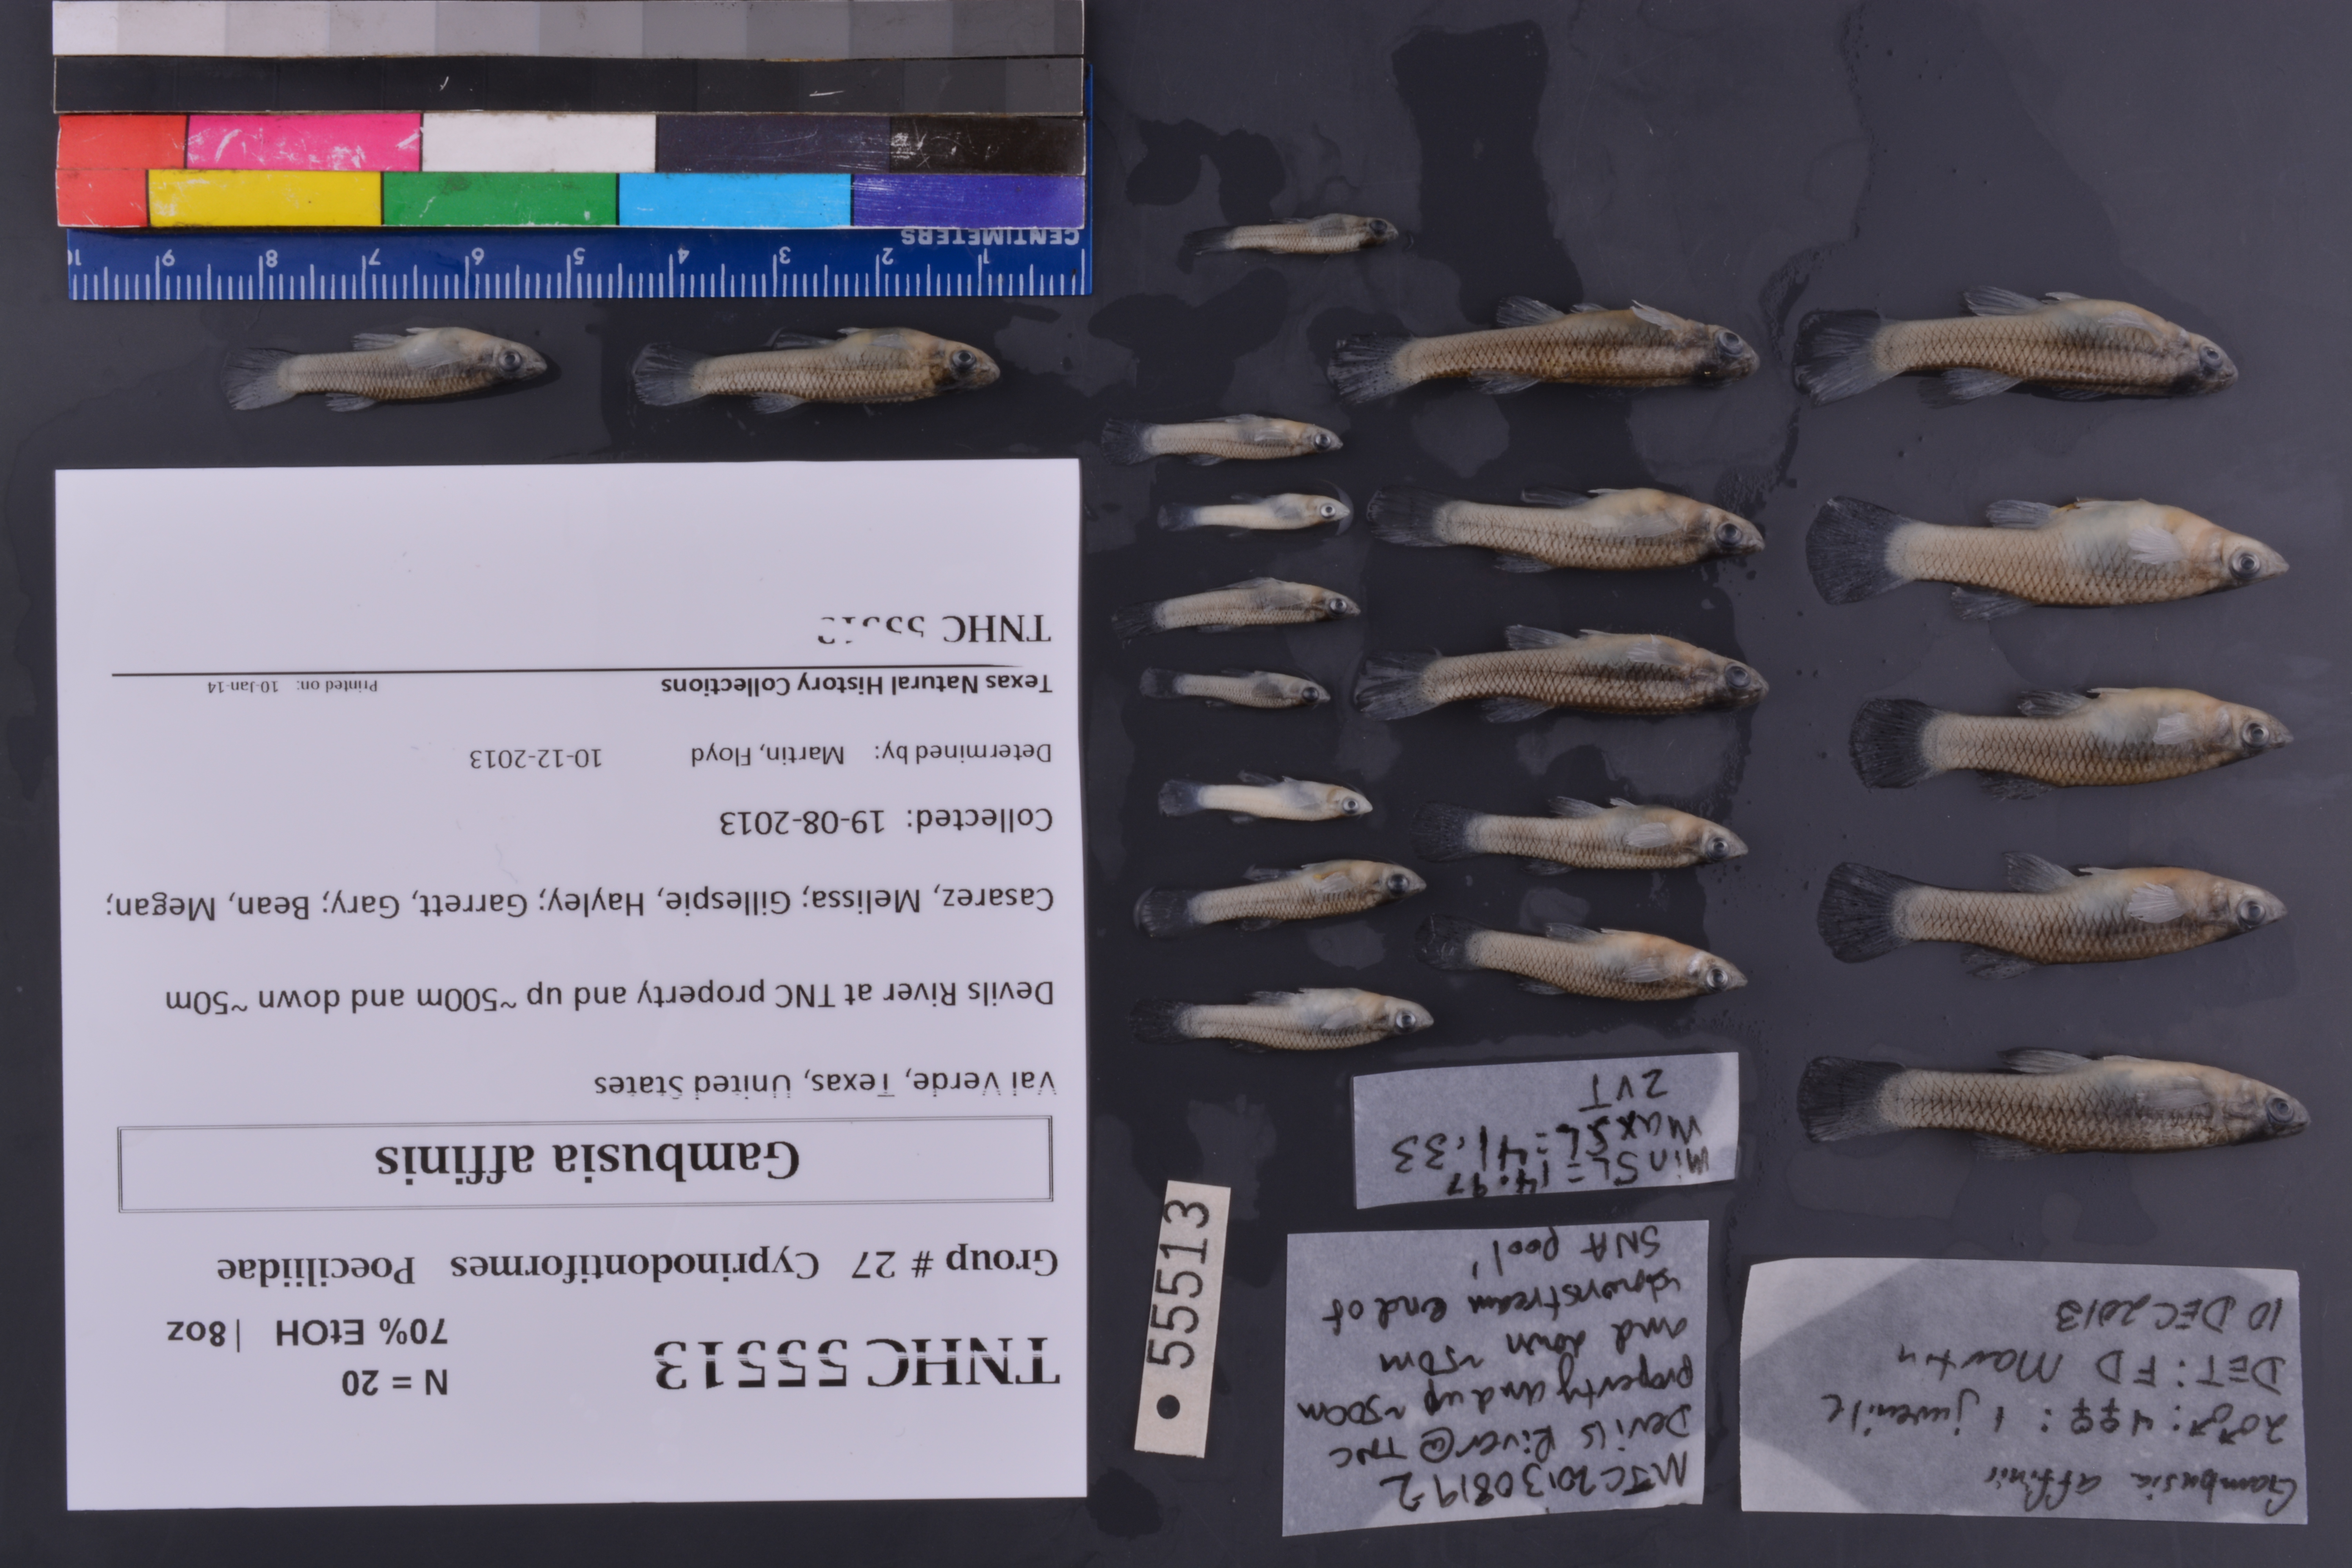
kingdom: Animalia
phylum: Chordata
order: Cyprinodontiformes
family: Poeciliidae
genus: Gambusia
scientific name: Gambusia affinis
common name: Mosquitofish
